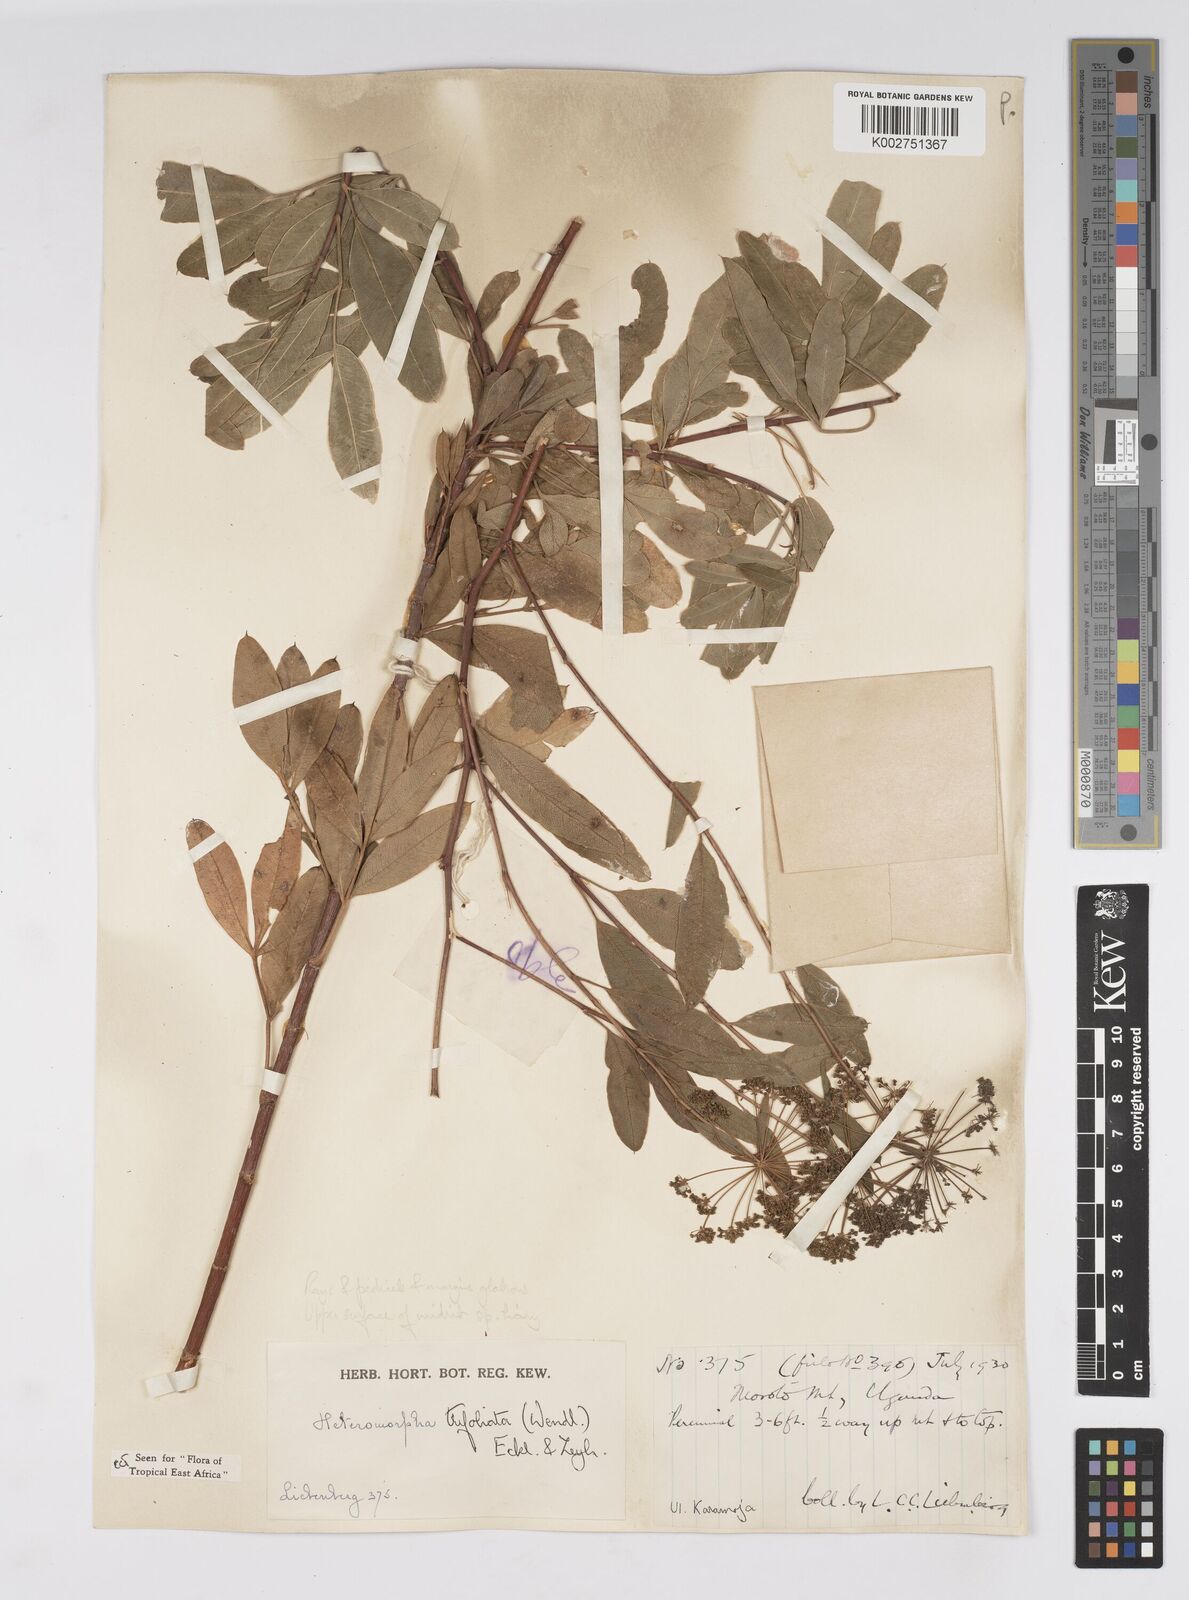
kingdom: Plantae
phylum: Tracheophyta
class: Magnoliopsida
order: Apiales
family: Apiaceae
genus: Heteromorpha
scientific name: Heteromorpha arborescens
